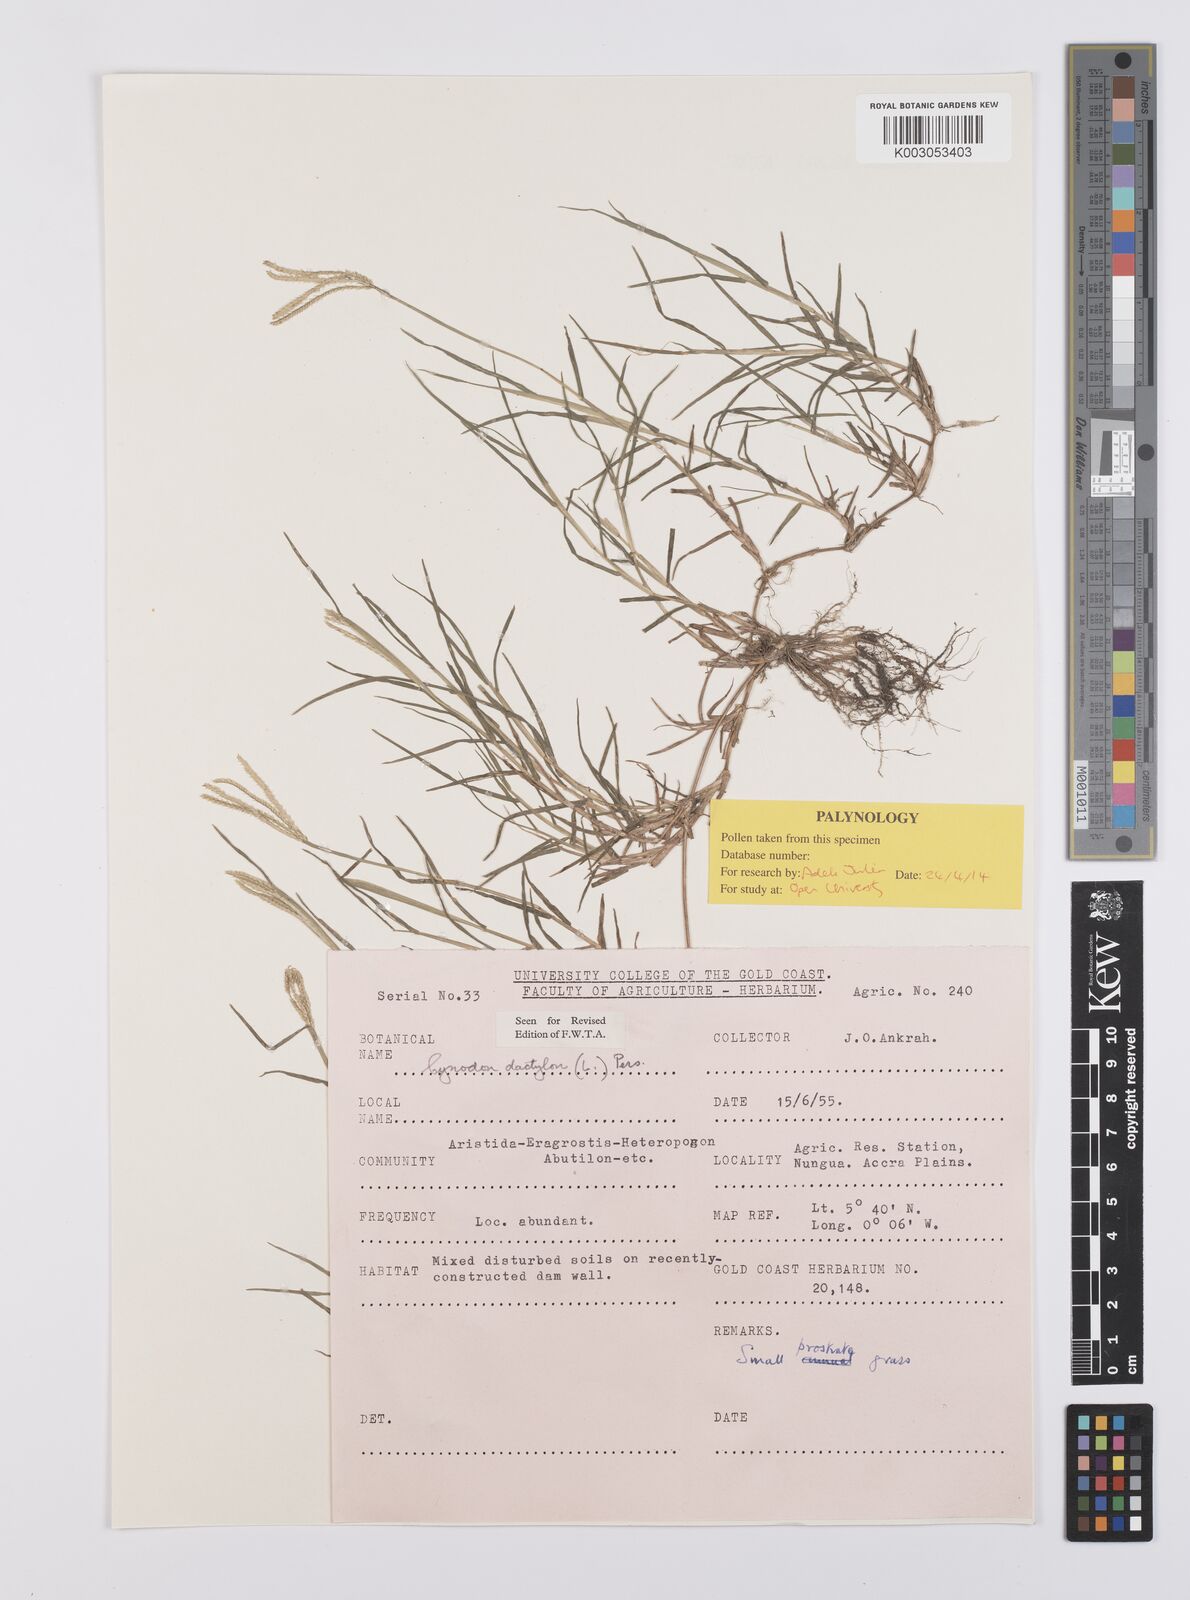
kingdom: Plantae
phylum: Tracheophyta
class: Liliopsida
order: Poales
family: Poaceae
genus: Cynodon
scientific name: Cynodon dactylon
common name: Bermuda grass
